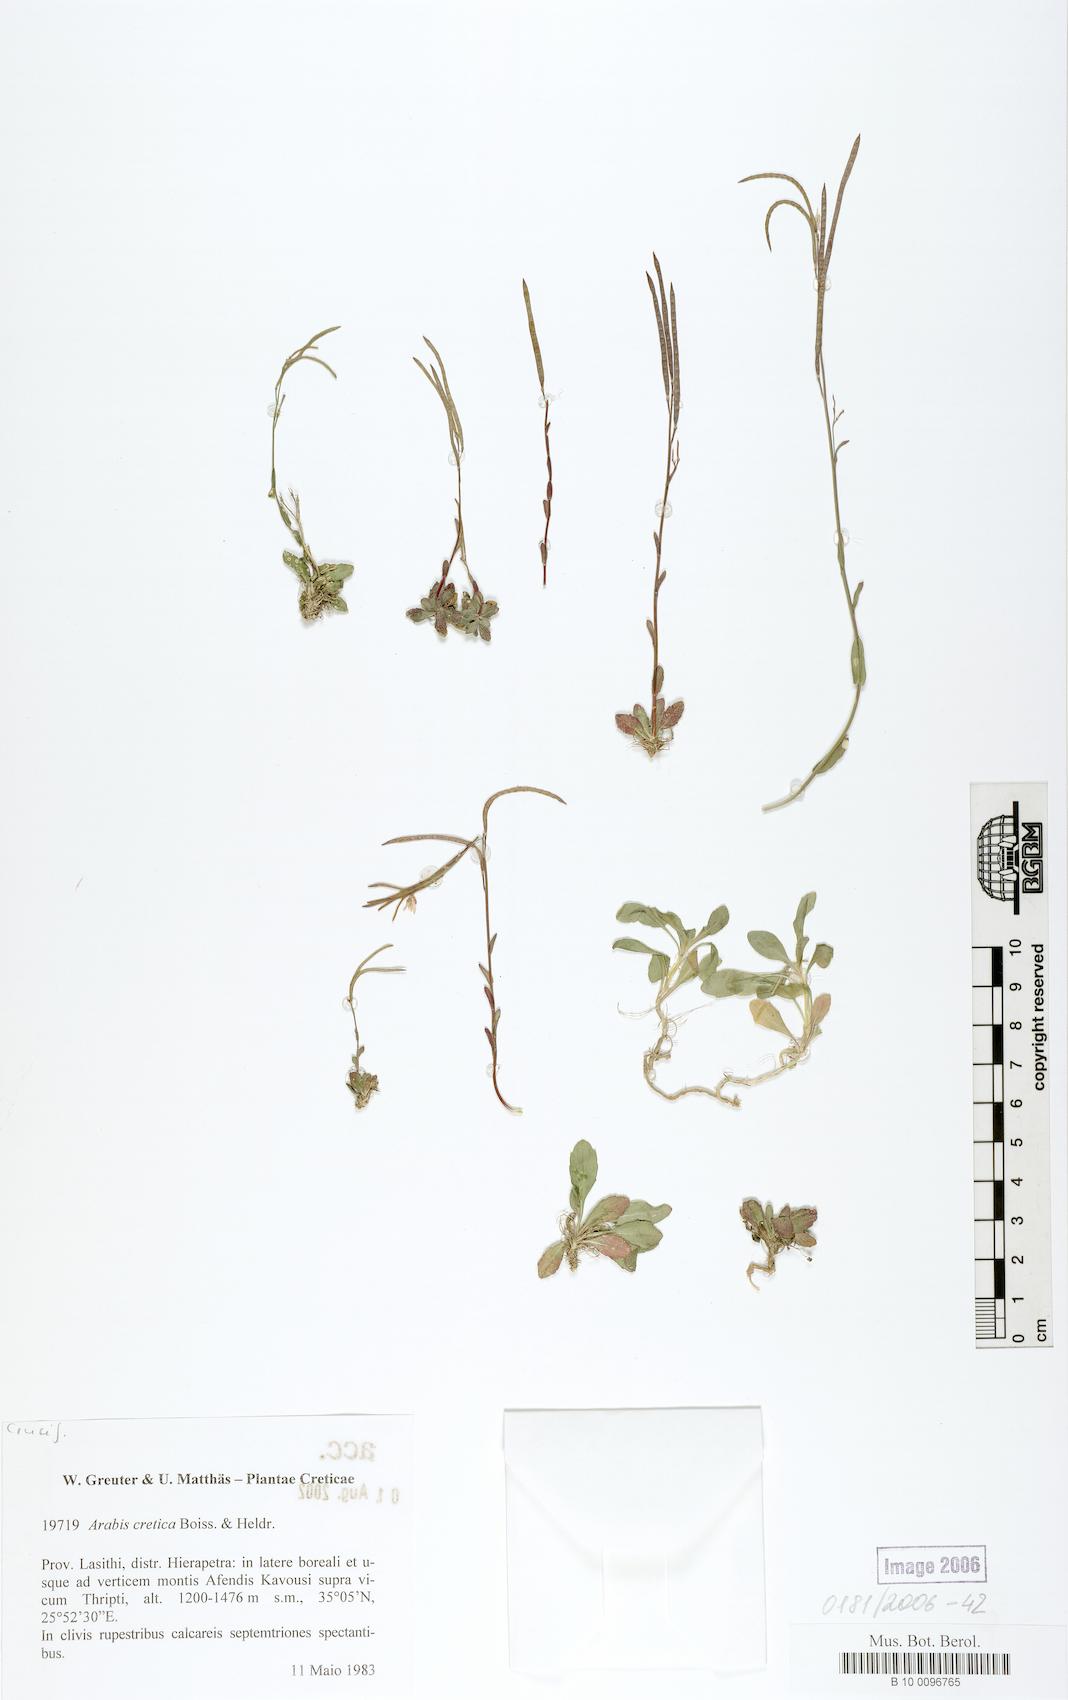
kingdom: Plantae
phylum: Tracheophyta
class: Magnoliopsida
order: Brassicales
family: Brassicaceae
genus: Arabis
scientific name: Arabis cretica
